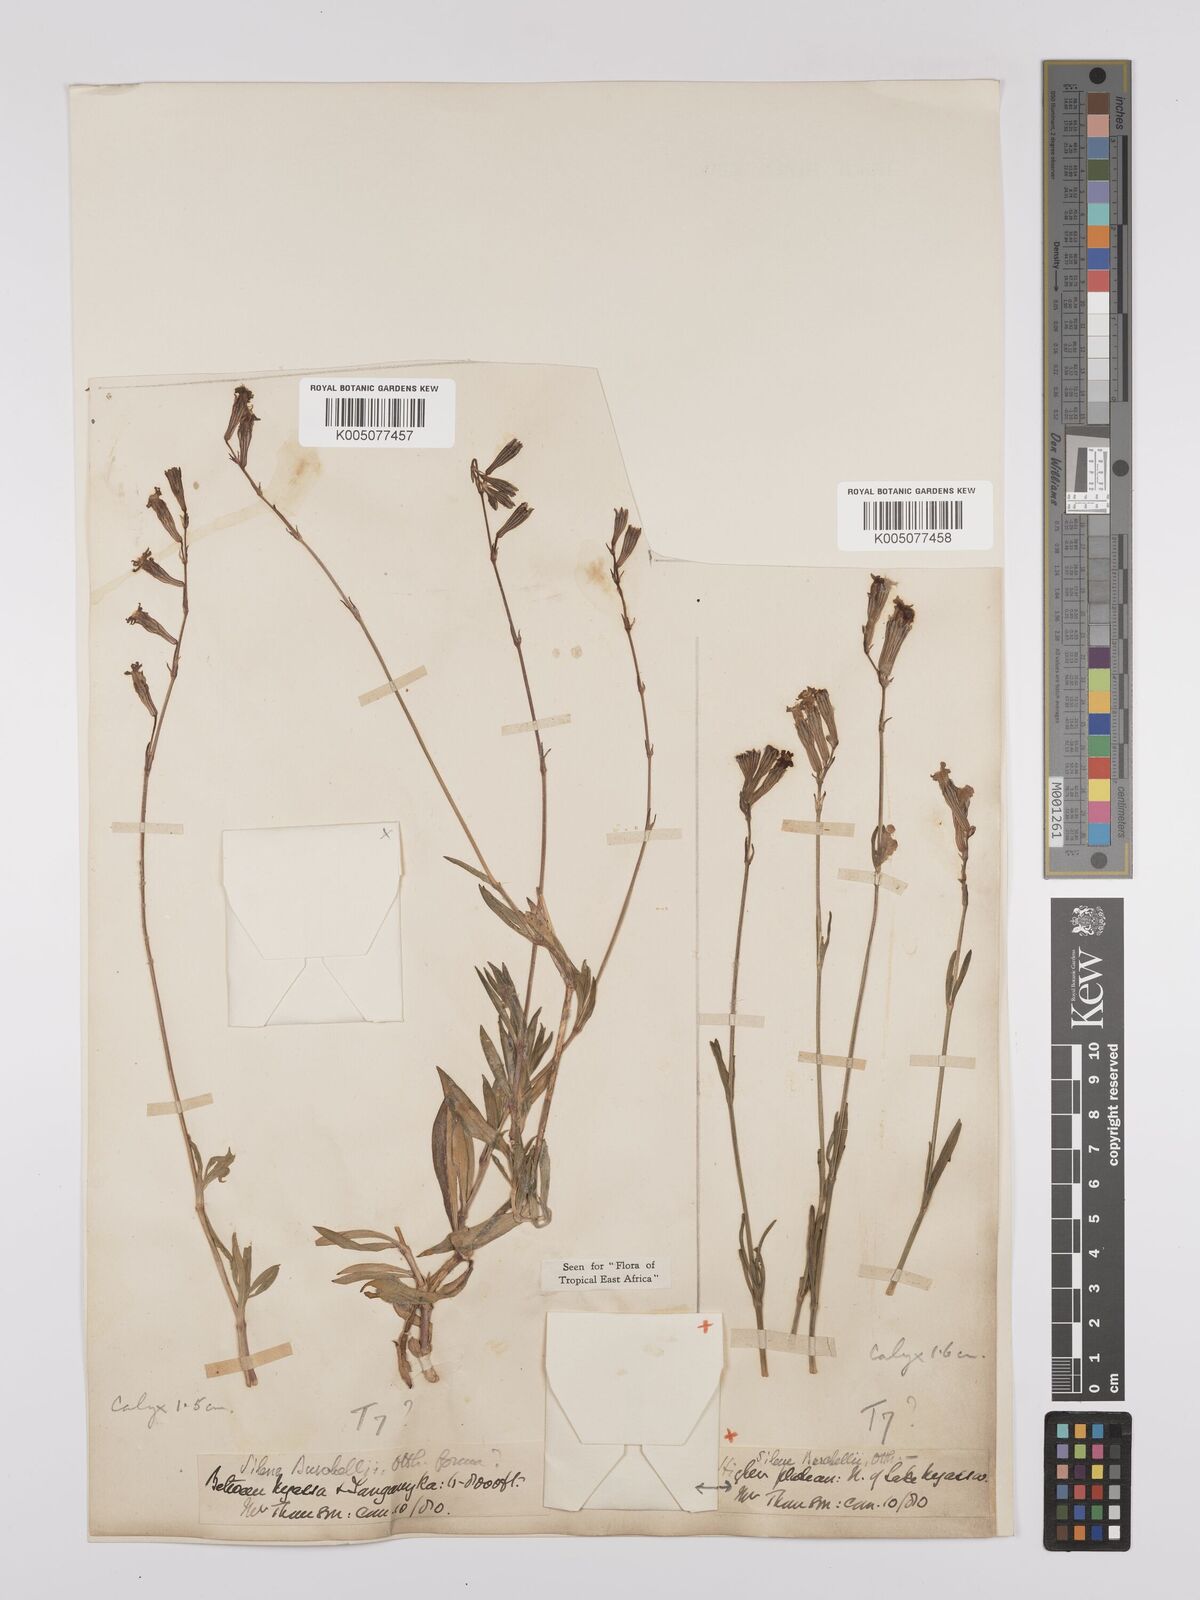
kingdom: Plantae
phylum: Tracheophyta
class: Magnoliopsida
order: Caryophyllales
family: Caryophyllaceae
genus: Silene
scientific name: Silene burchellii
